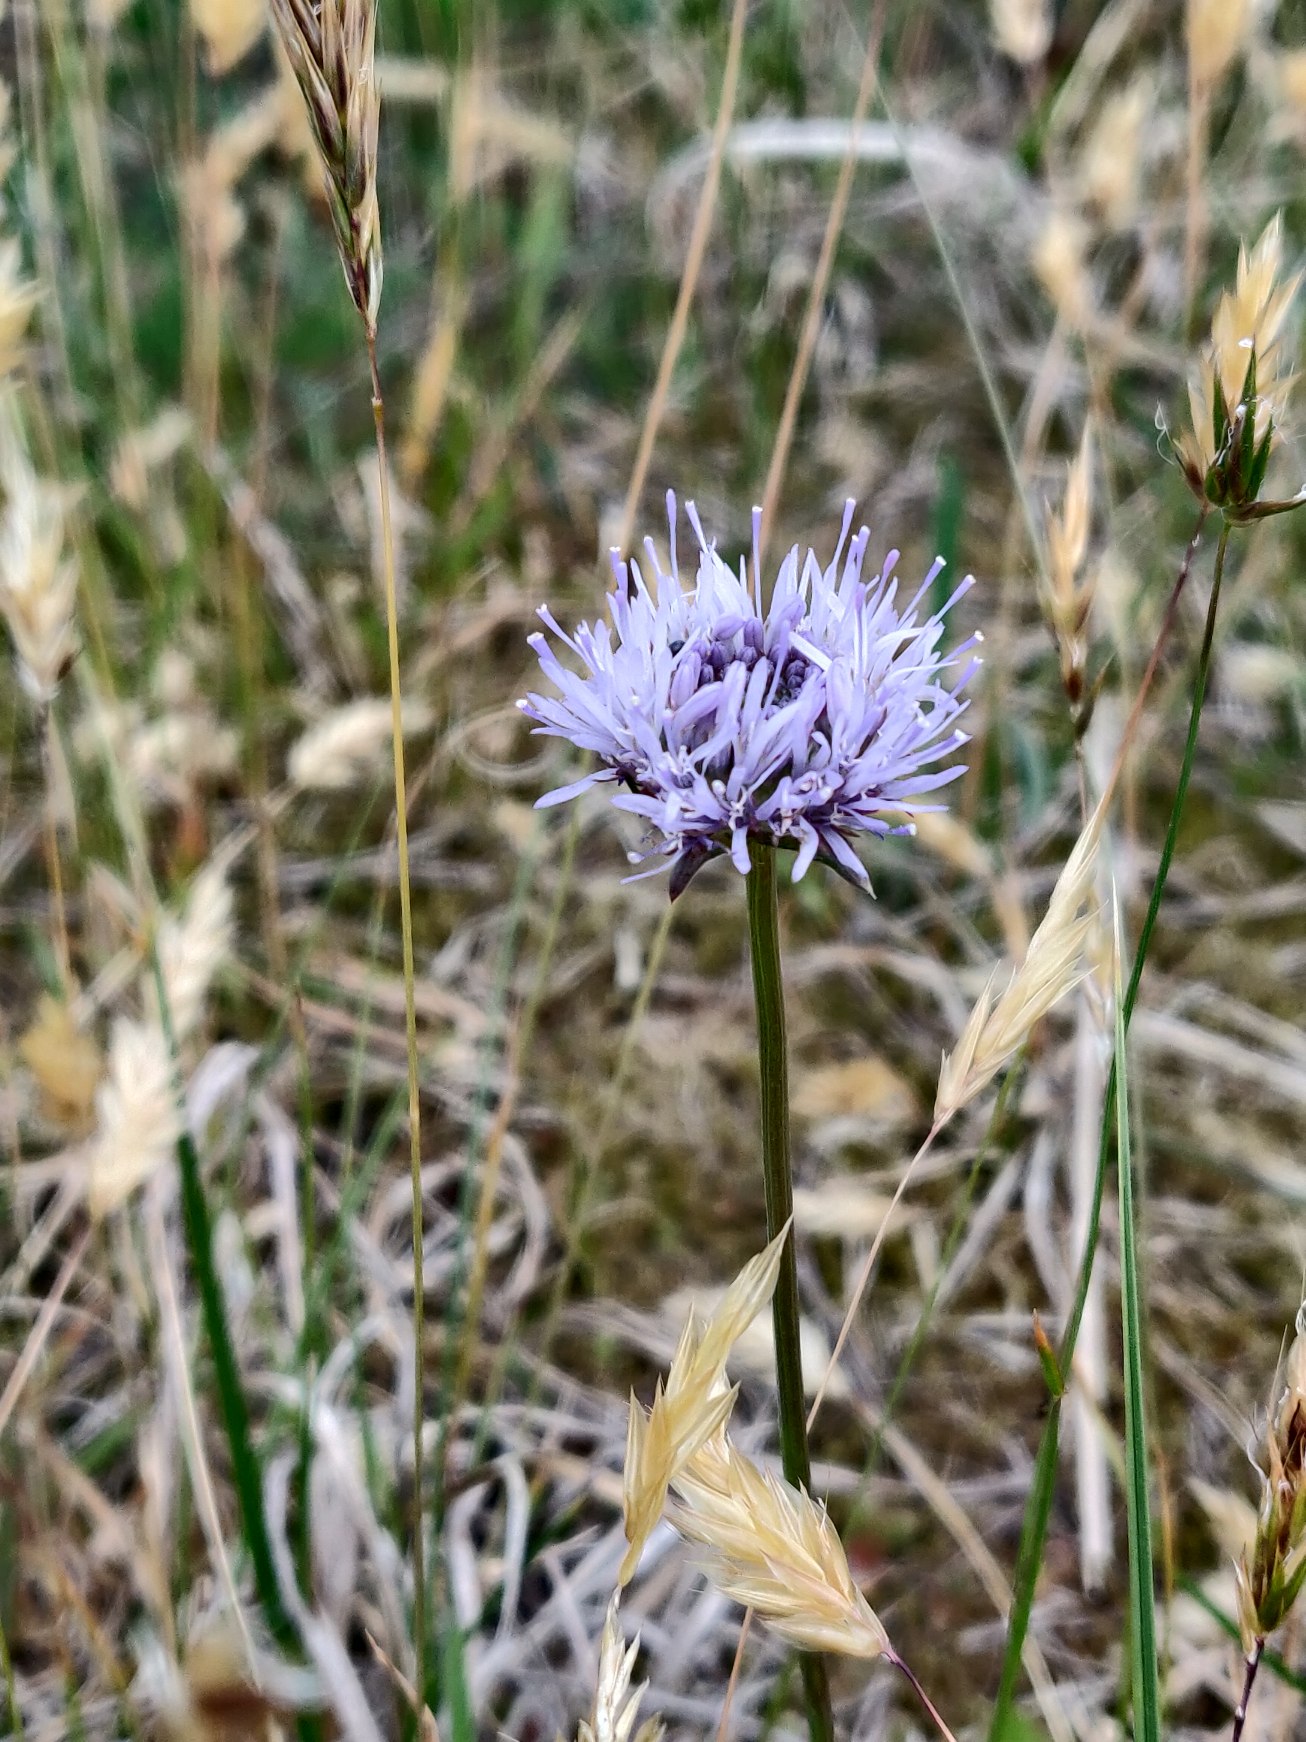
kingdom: Plantae
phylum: Tracheophyta
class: Magnoliopsida
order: Asterales
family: Campanulaceae
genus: Jasione
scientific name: Jasione montana
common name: Blåmunke
